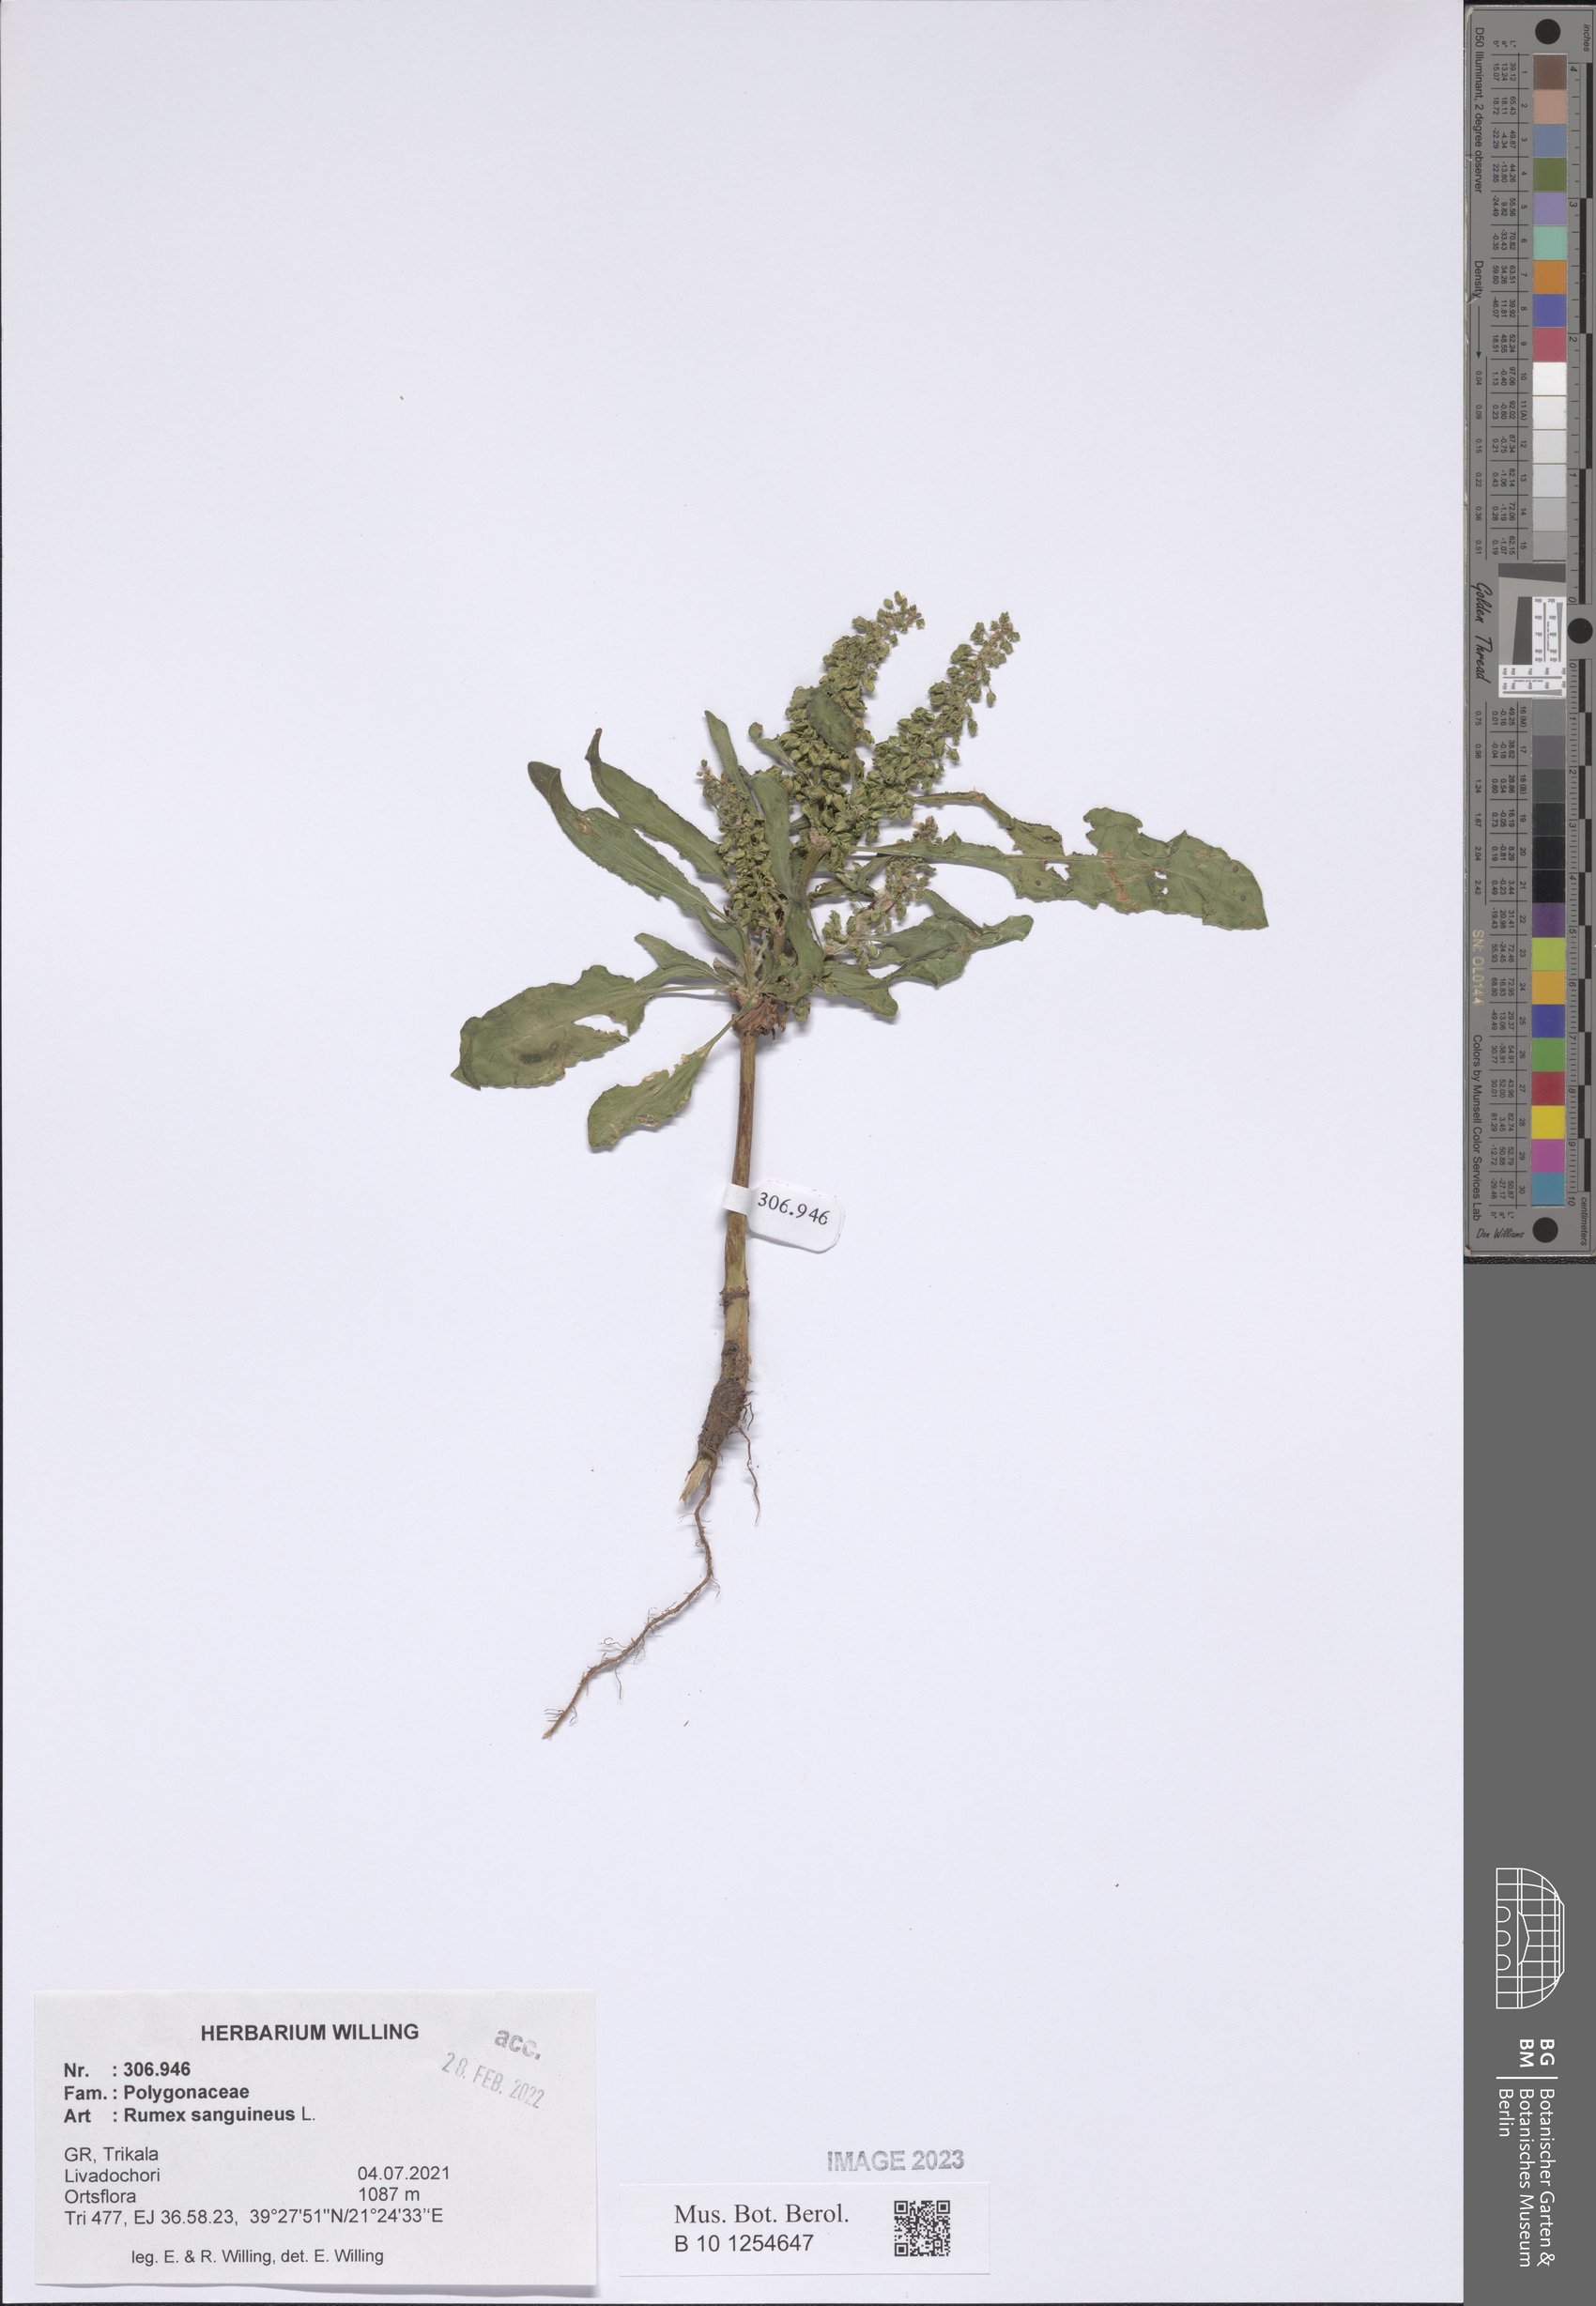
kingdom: Plantae
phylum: Tracheophyta
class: Magnoliopsida
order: Caryophyllales
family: Polygonaceae
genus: Rumex
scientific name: Rumex sanguineus
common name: Wood dock
